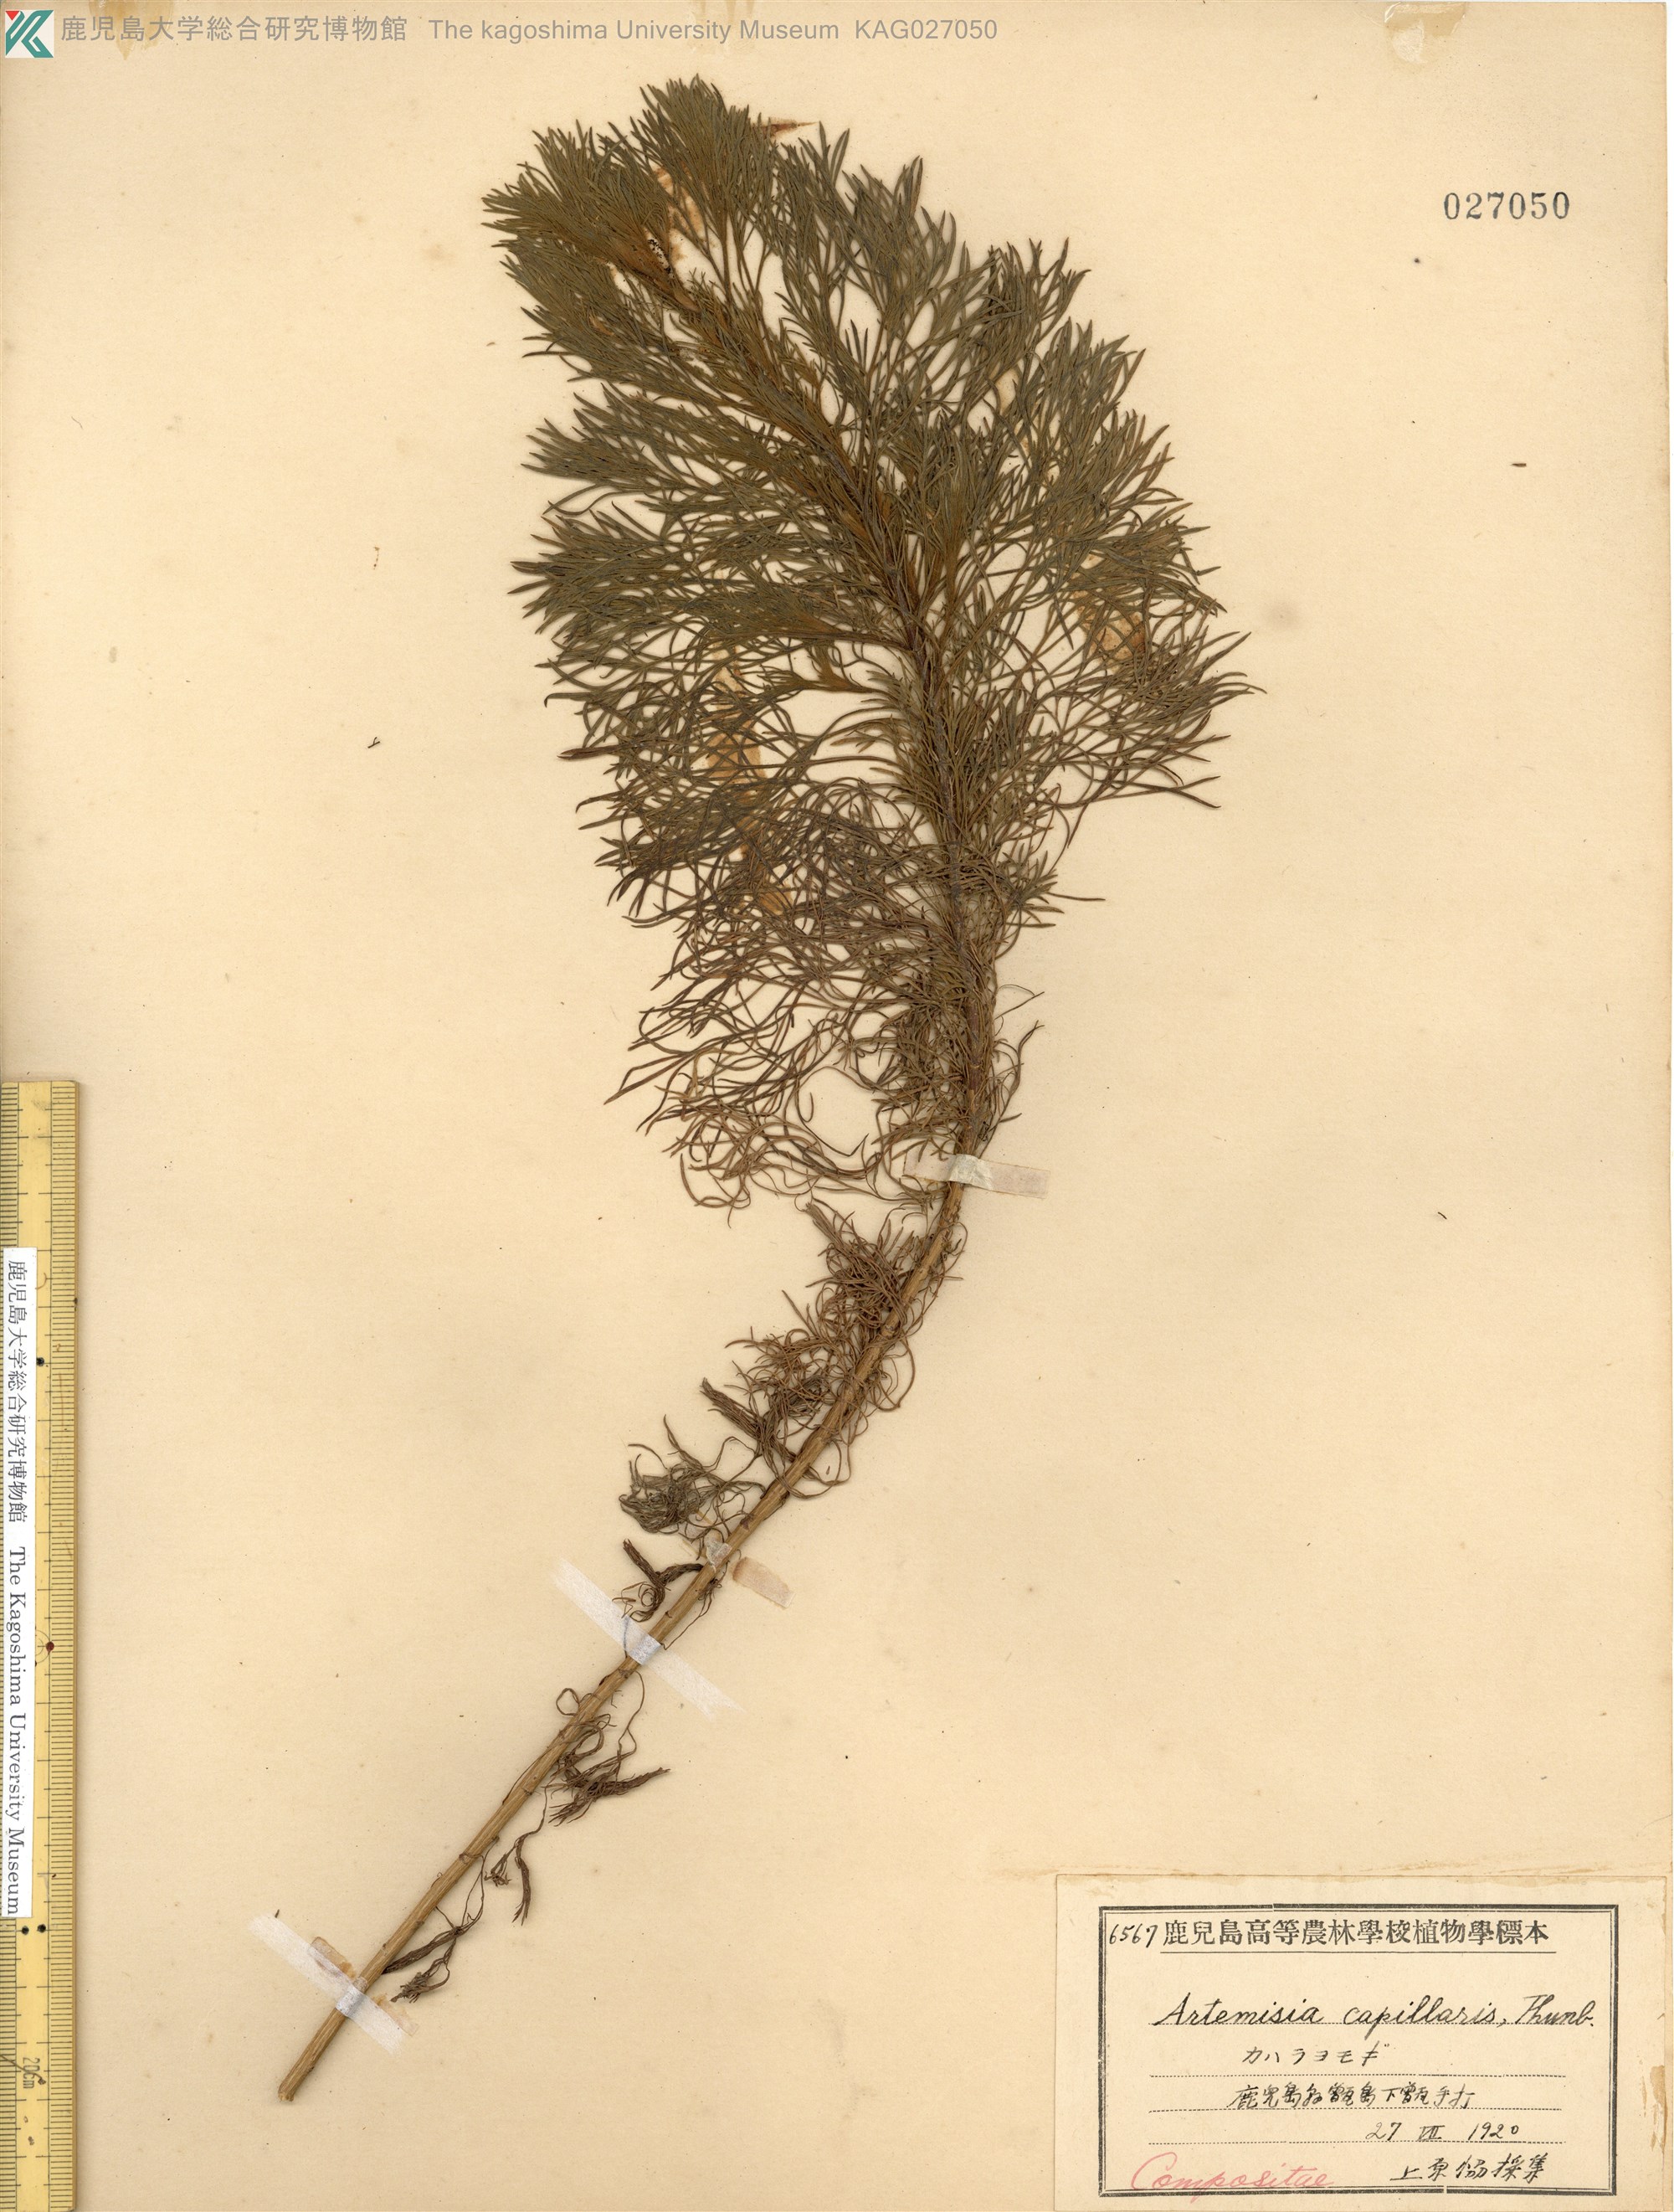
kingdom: Plantae
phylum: Tracheophyta
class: Magnoliopsida
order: Asterales
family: Asteraceae
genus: Artemisia
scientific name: Artemisia capillaris
